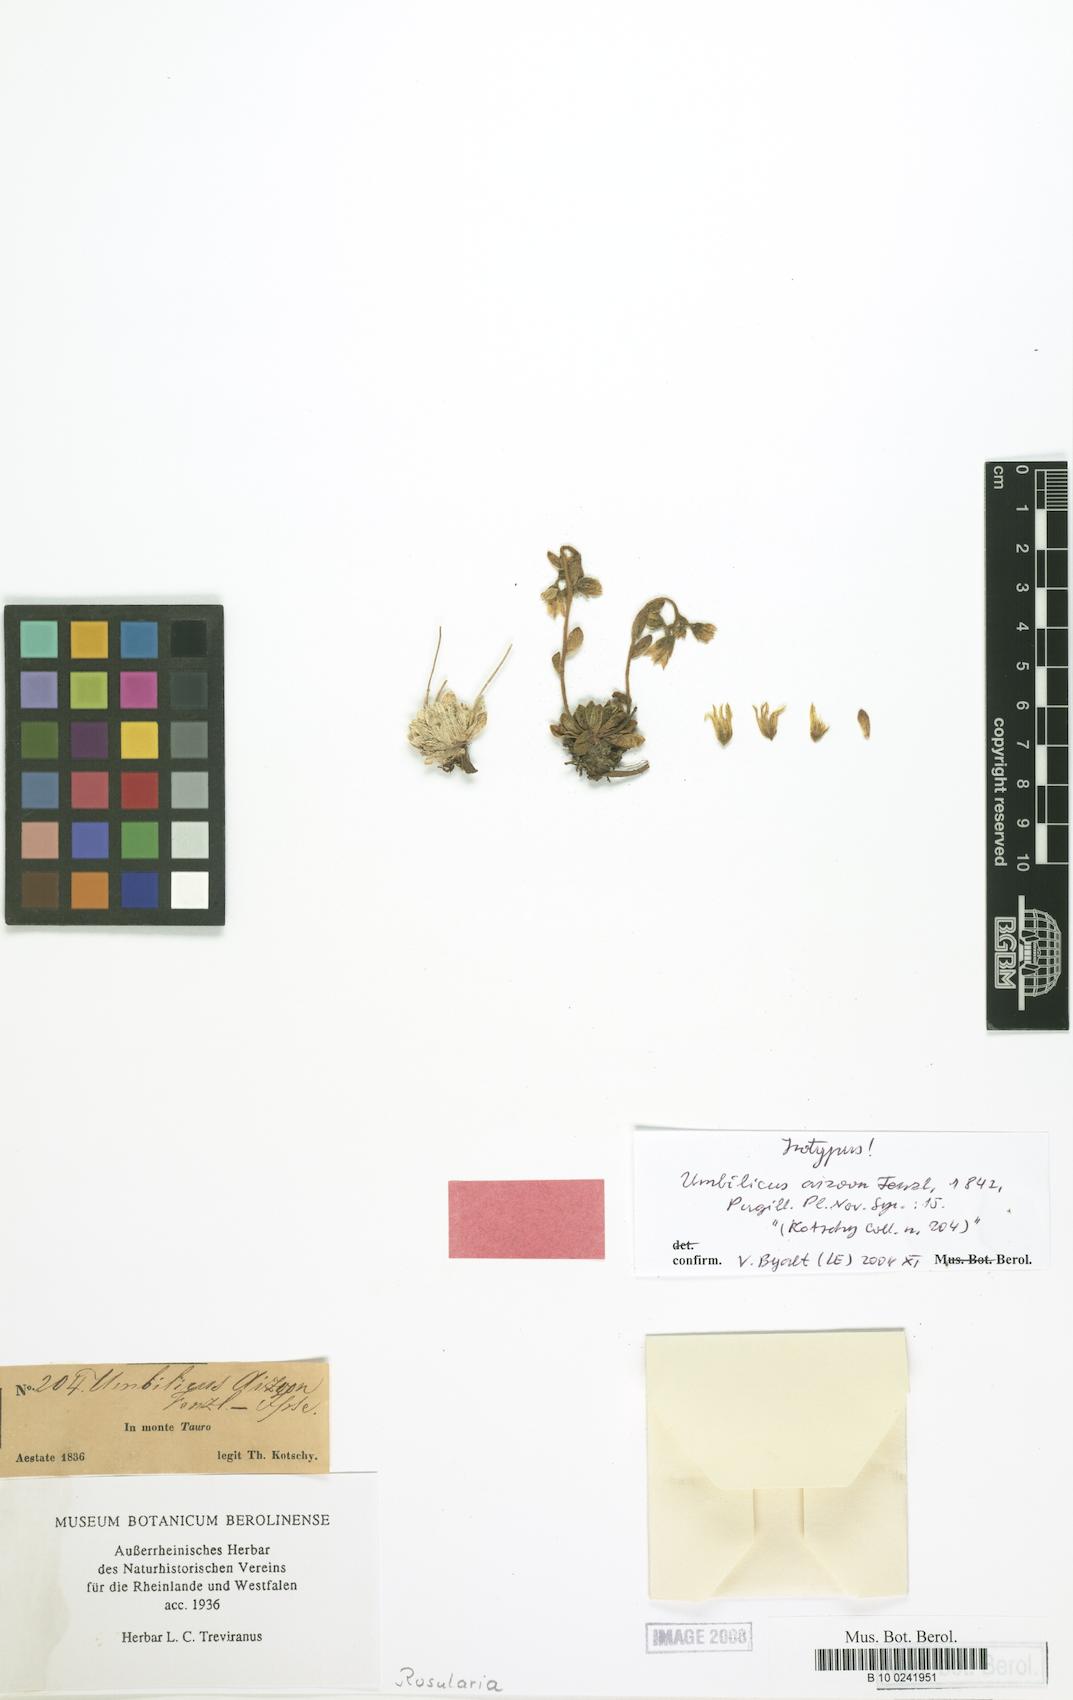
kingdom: Plantae
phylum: Tracheophyta
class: Magnoliopsida
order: Saxifragales
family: Crassulaceae
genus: Prometheum
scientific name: Prometheum aizoon
